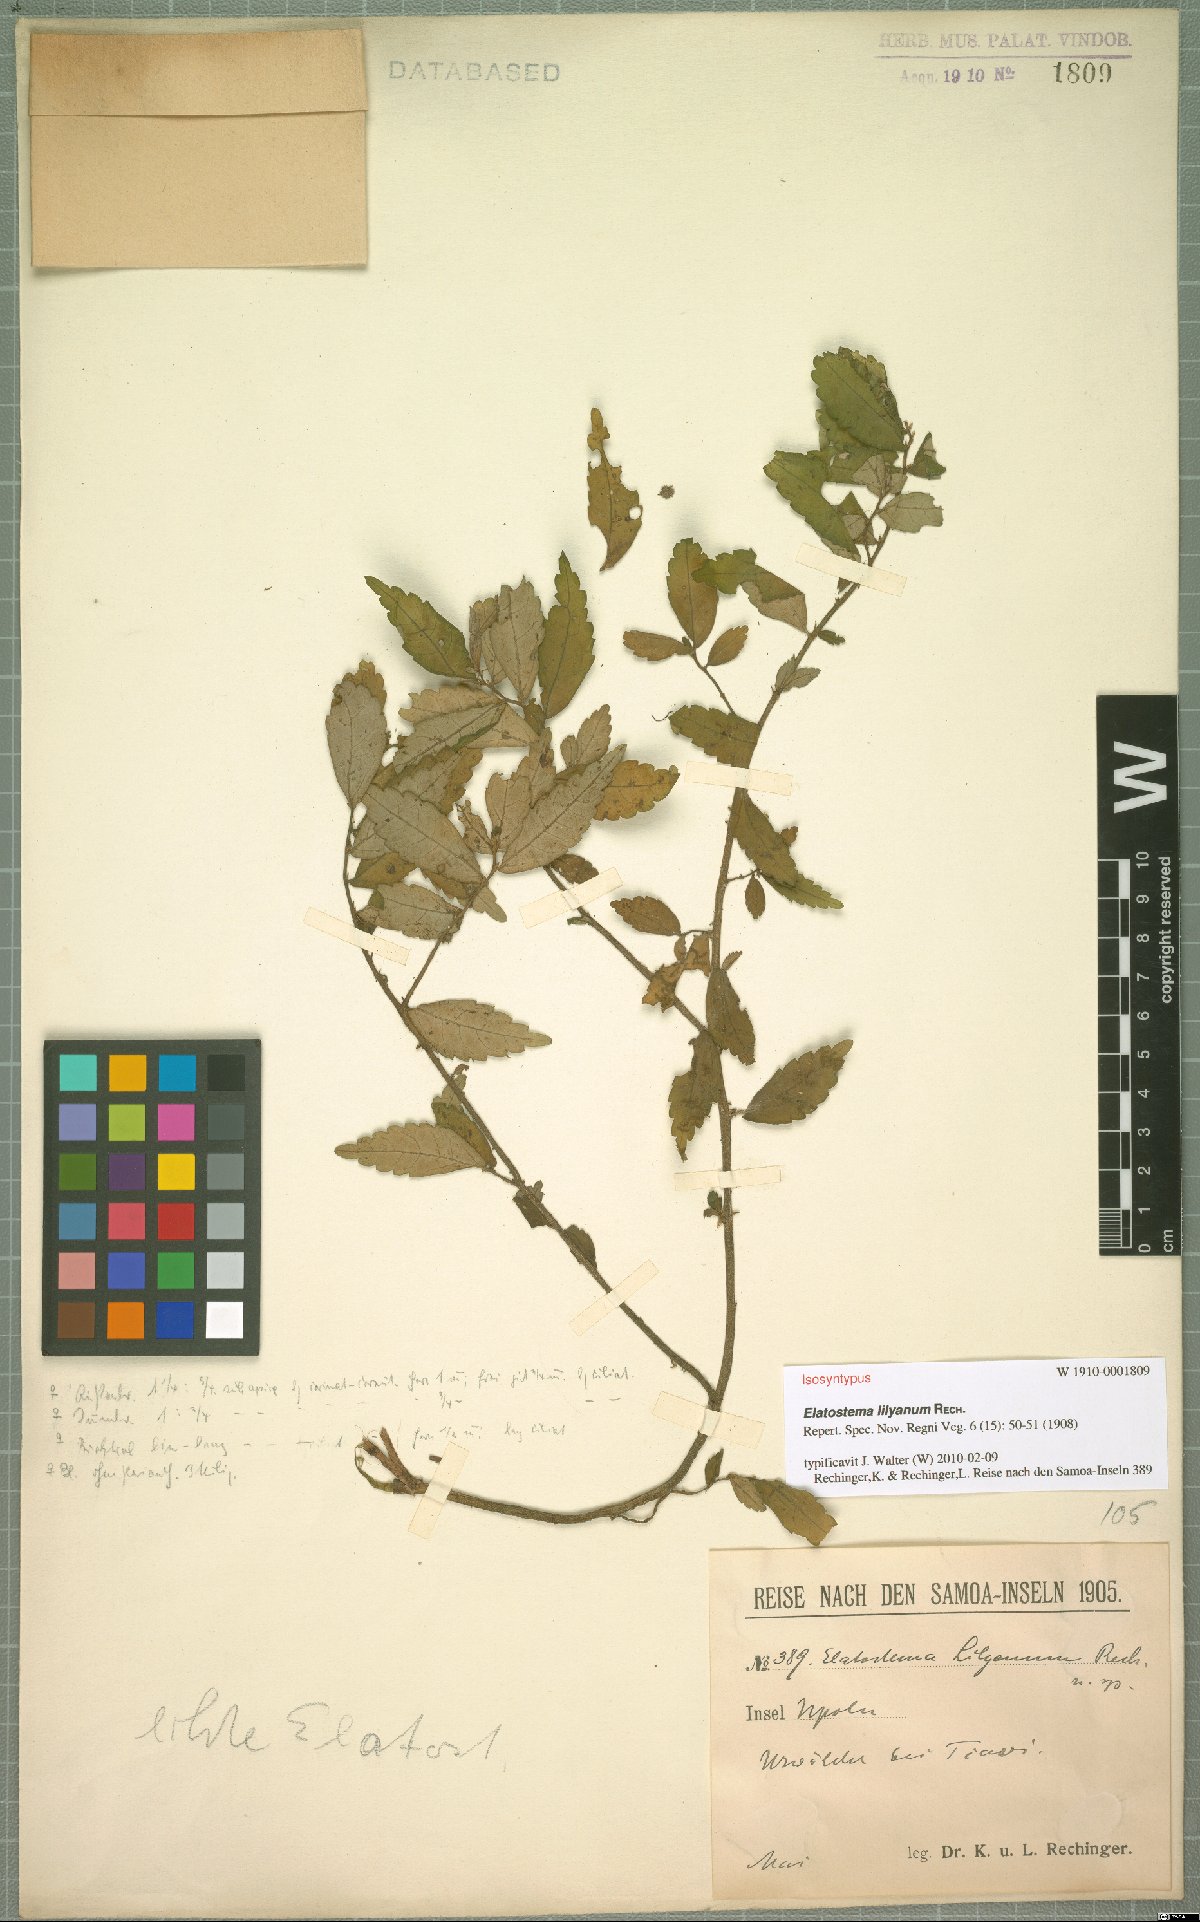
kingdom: Plantae
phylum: Tracheophyta
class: Magnoliopsida
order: Rosales
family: Urticaceae
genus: Elatostema
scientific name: Elatostema lilyanum
